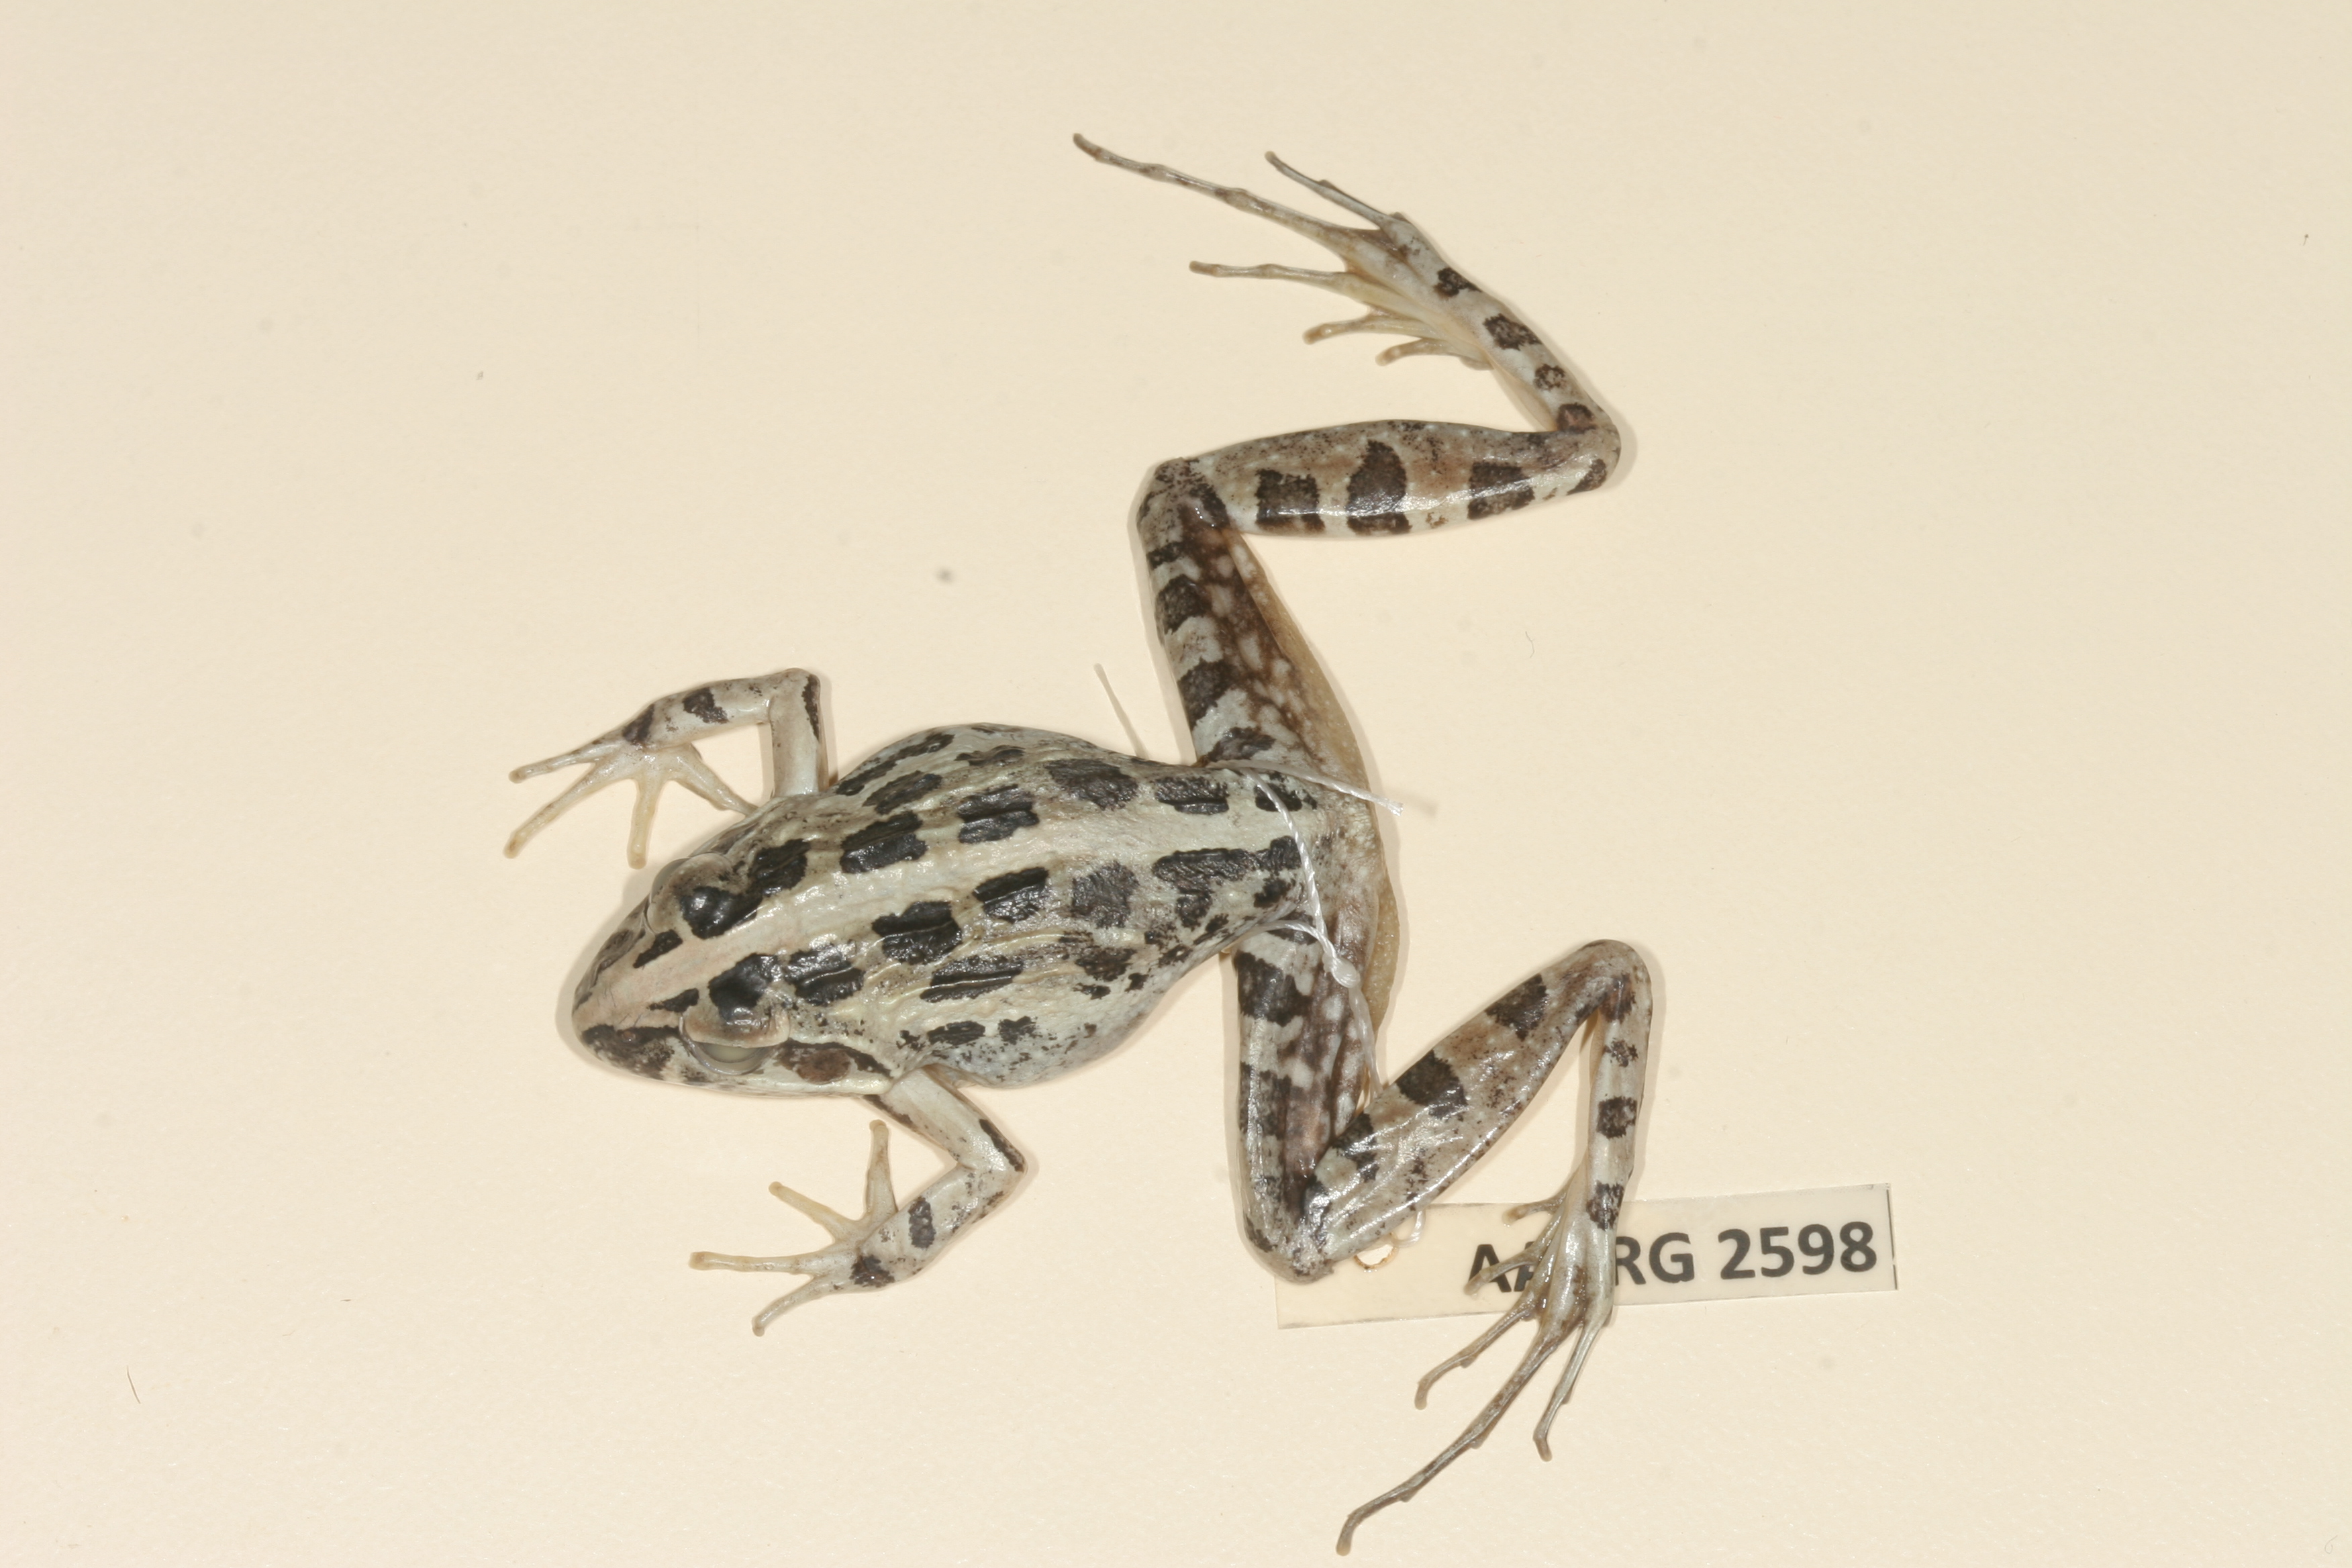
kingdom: Animalia
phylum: Chordata
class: Amphibia
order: Anura
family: Pyxicephalidae
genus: Strongylopus
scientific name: Strongylopus grayii
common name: Gray's stream frog
